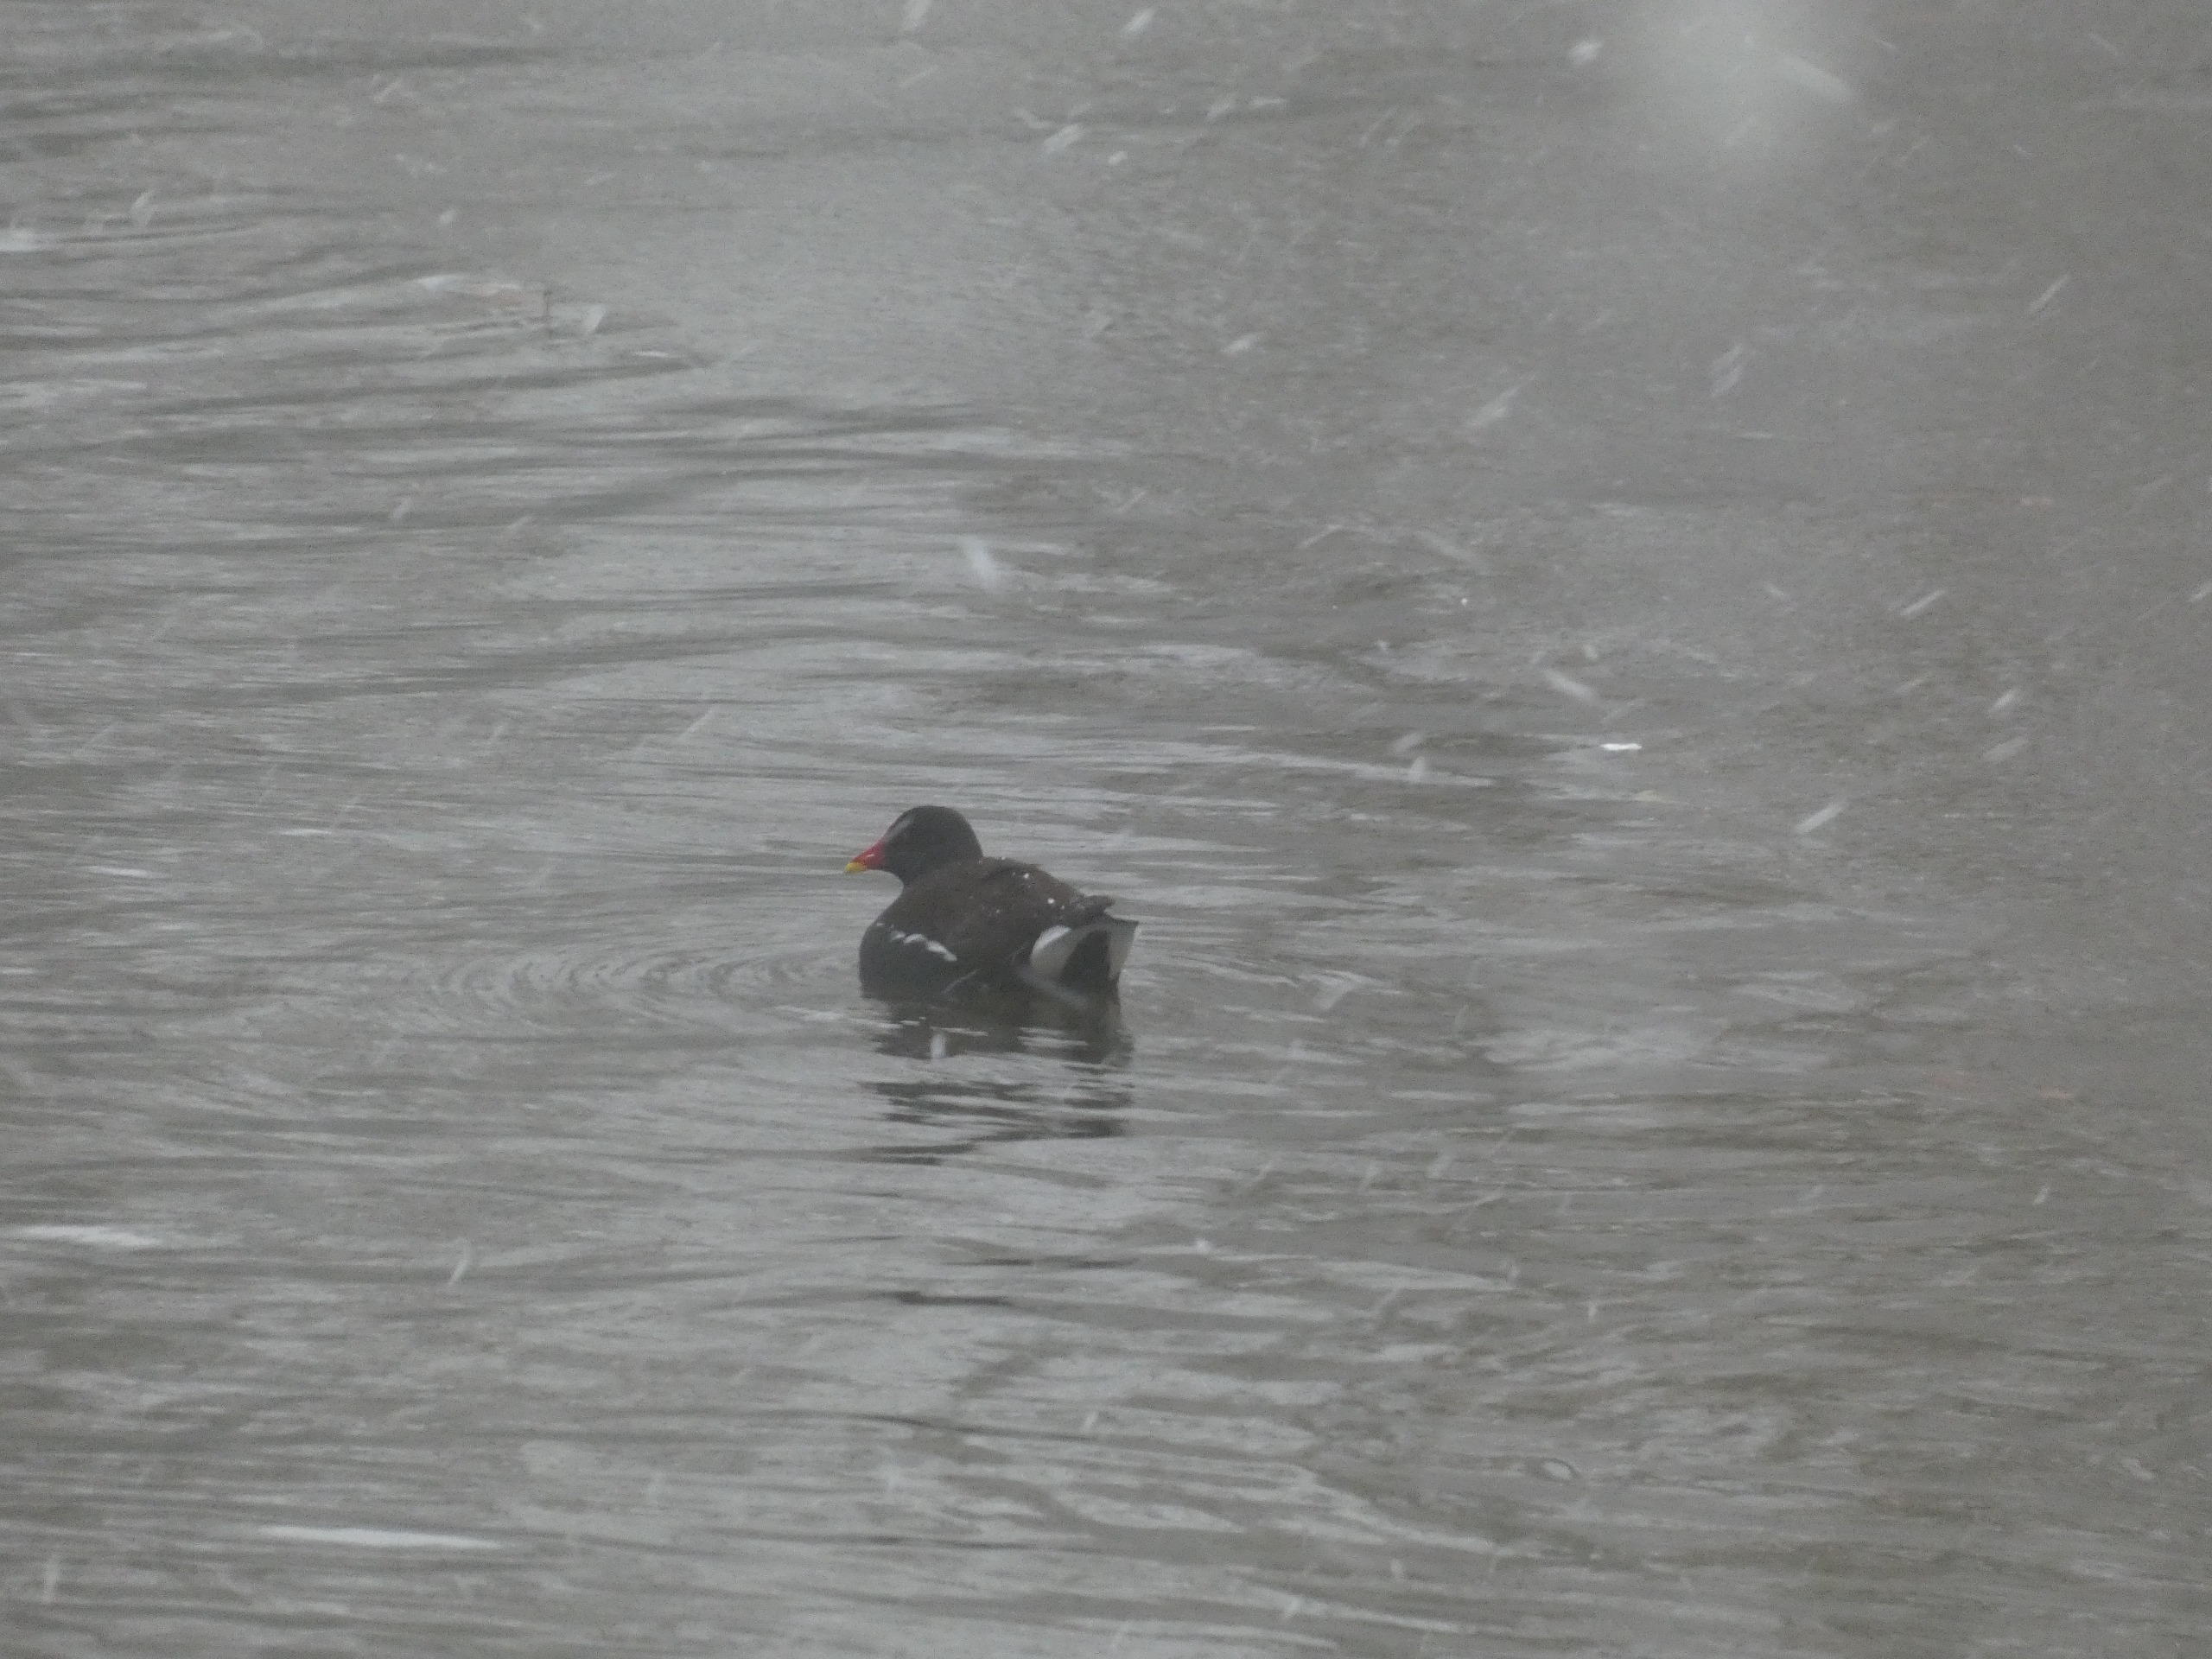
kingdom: Animalia
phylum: Chordata
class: Aves
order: Gruiformes
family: Rallidae
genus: Gallinula
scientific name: Gallinula chloropus
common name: Grønbenet rørhøne
